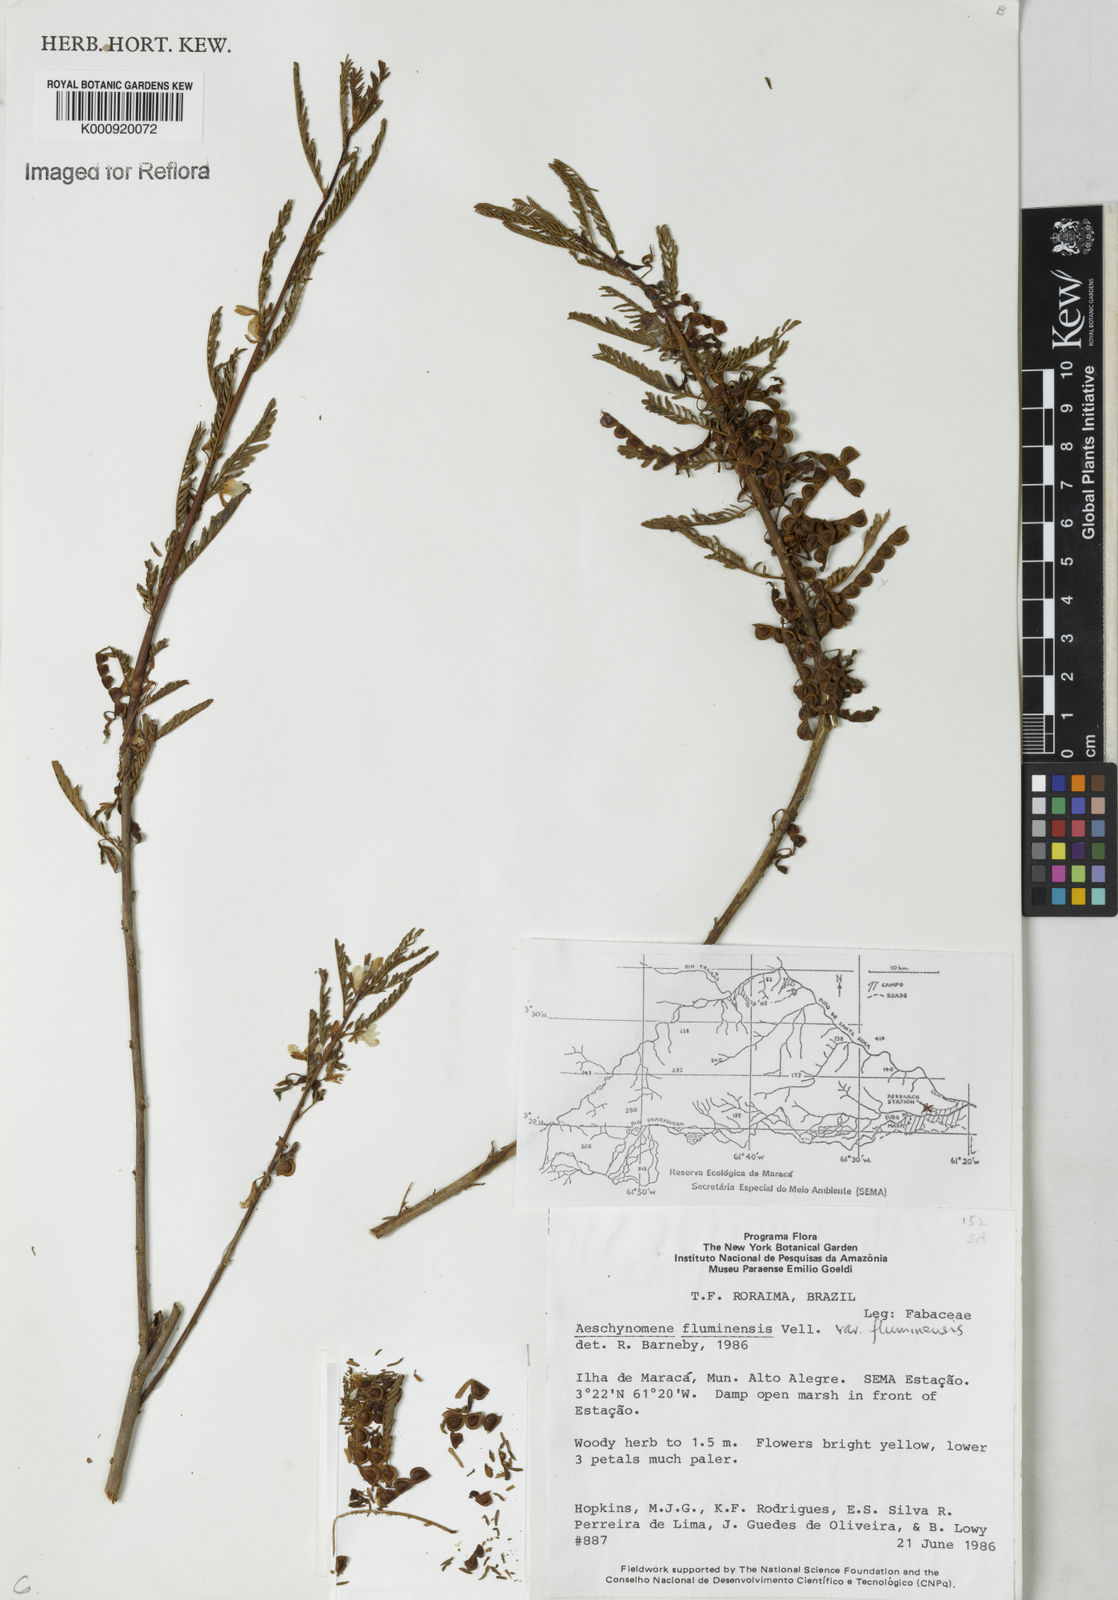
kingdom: Plantae
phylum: Tracheophyta
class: Magnoliopsida
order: Fabales
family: Fabaceae
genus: Aeschynomene
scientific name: Aeschynomene fluminensis
